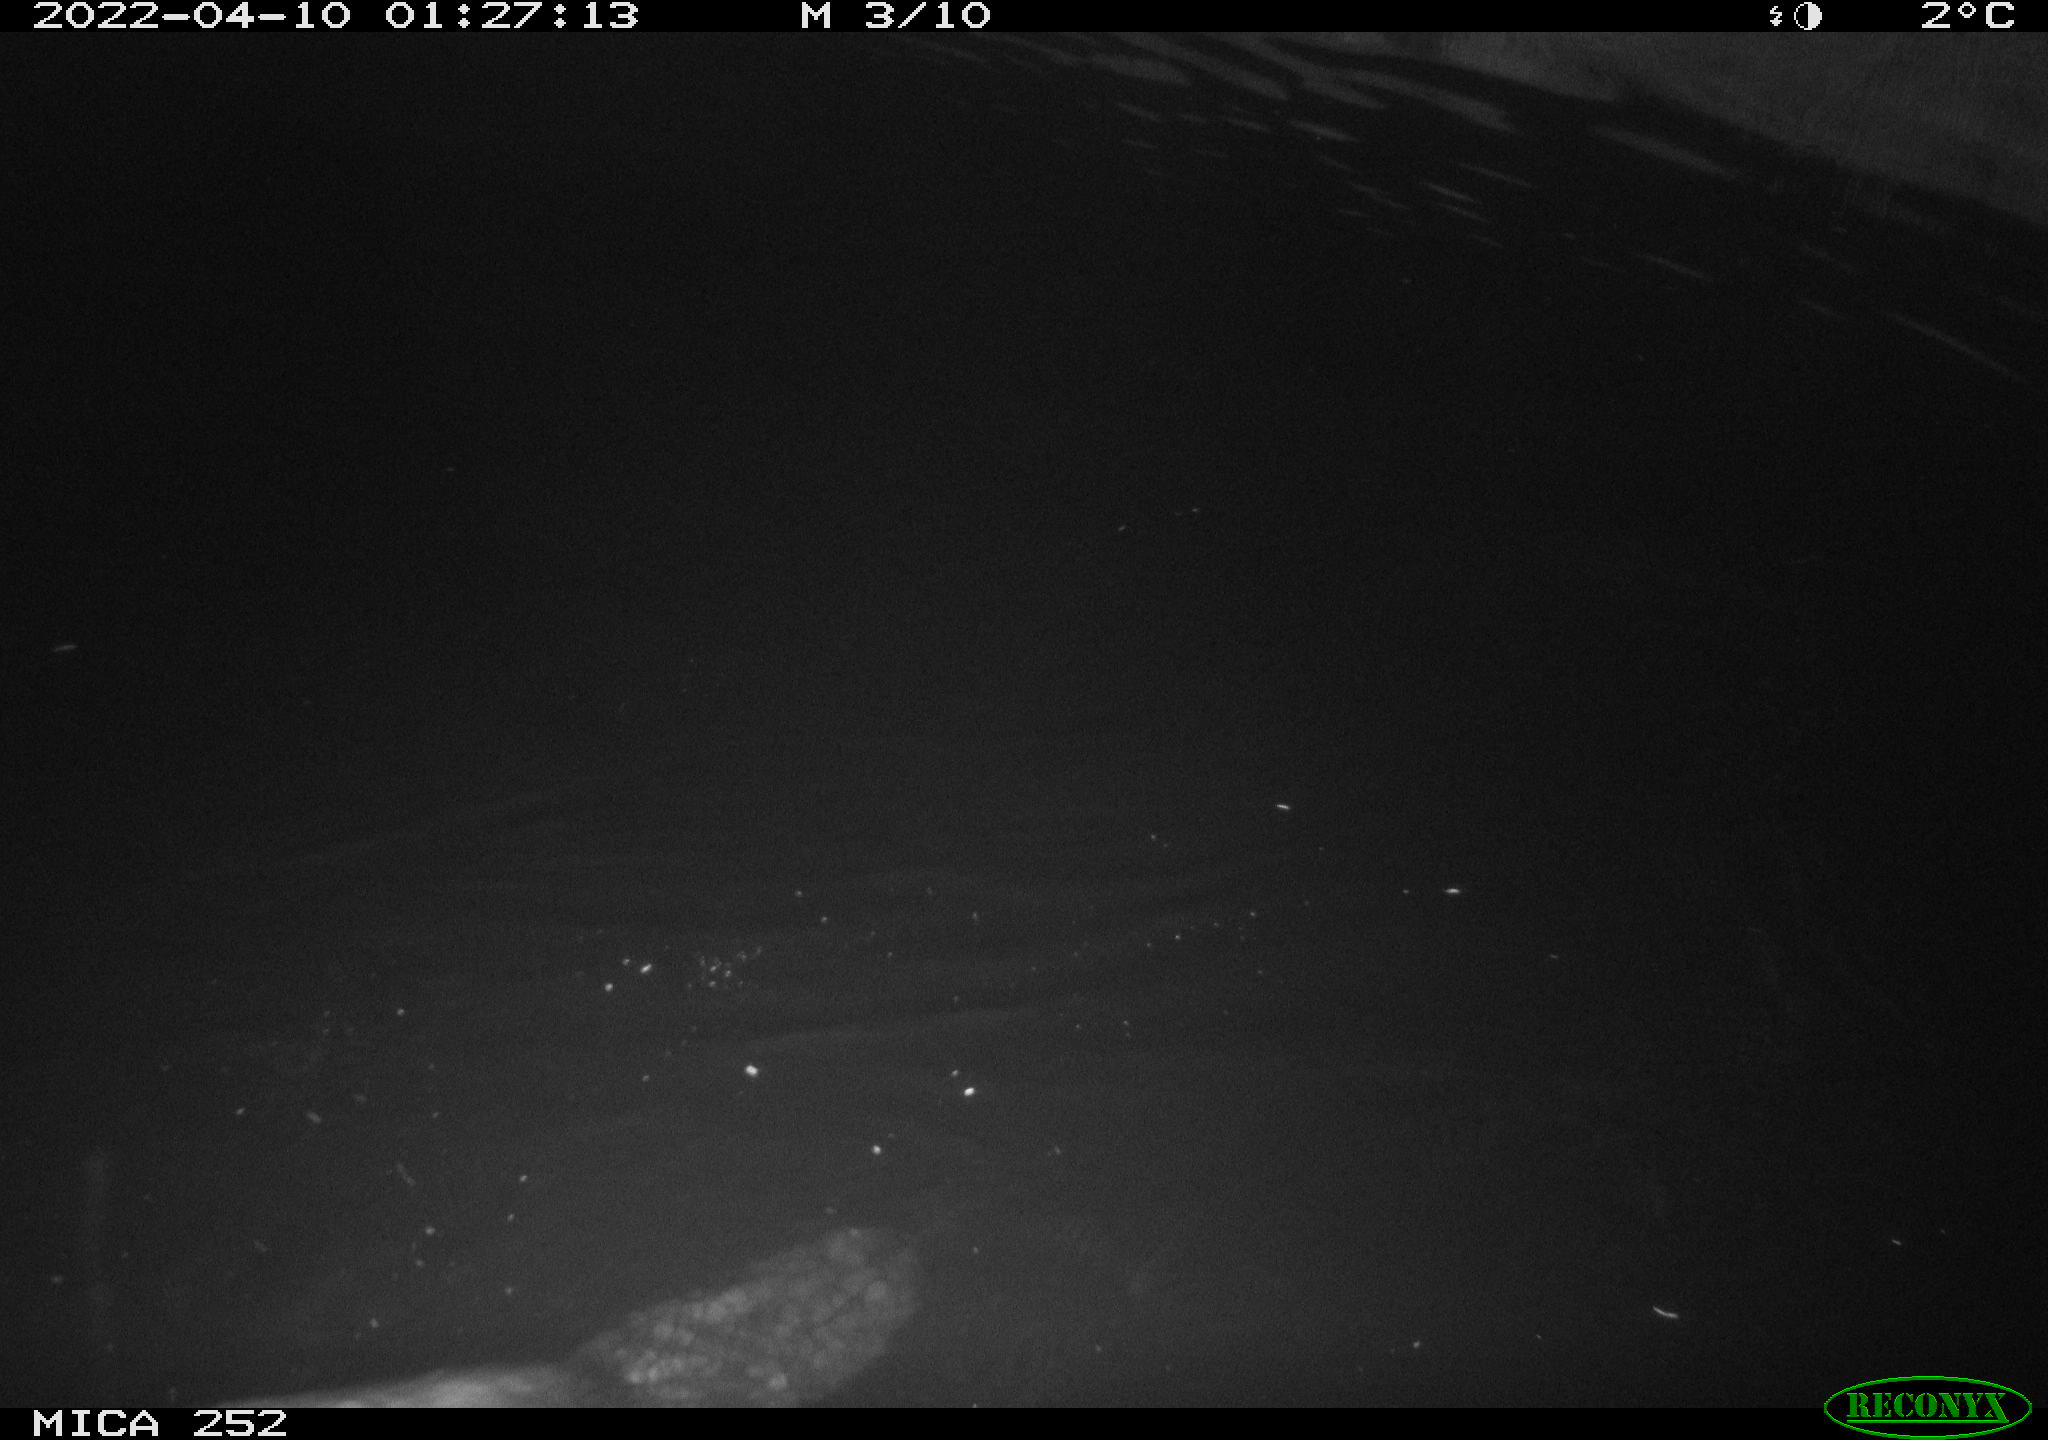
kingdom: Animalia
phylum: Chordata
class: Mammalia
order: Rodentia
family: Castoridae
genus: Castor
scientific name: Castor fiber
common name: Eurasian beaver
